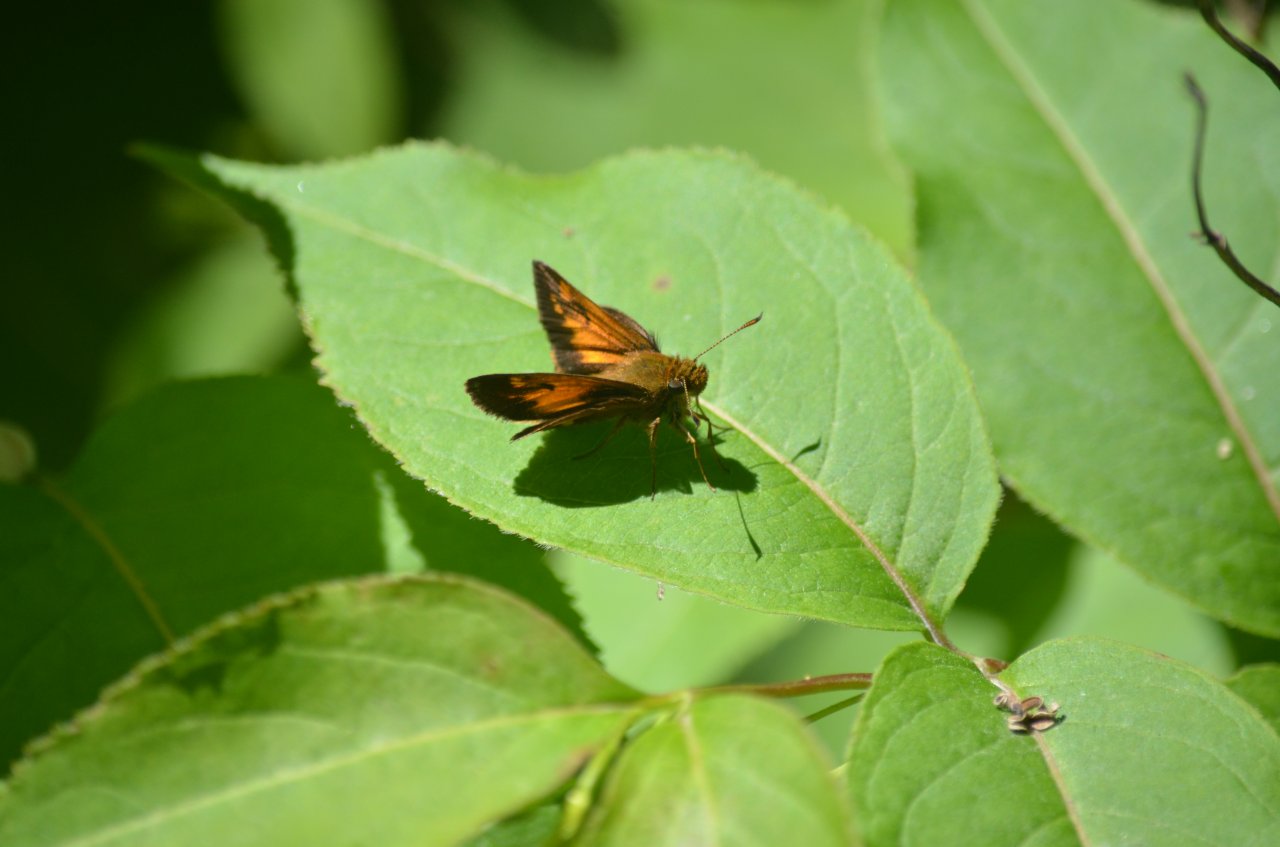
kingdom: Animalia
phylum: Arthropoda
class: Insecta
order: Lepidoptera
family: Hesperiidae
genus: Lon
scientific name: Lon hobomok
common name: Hobomok Skipper
